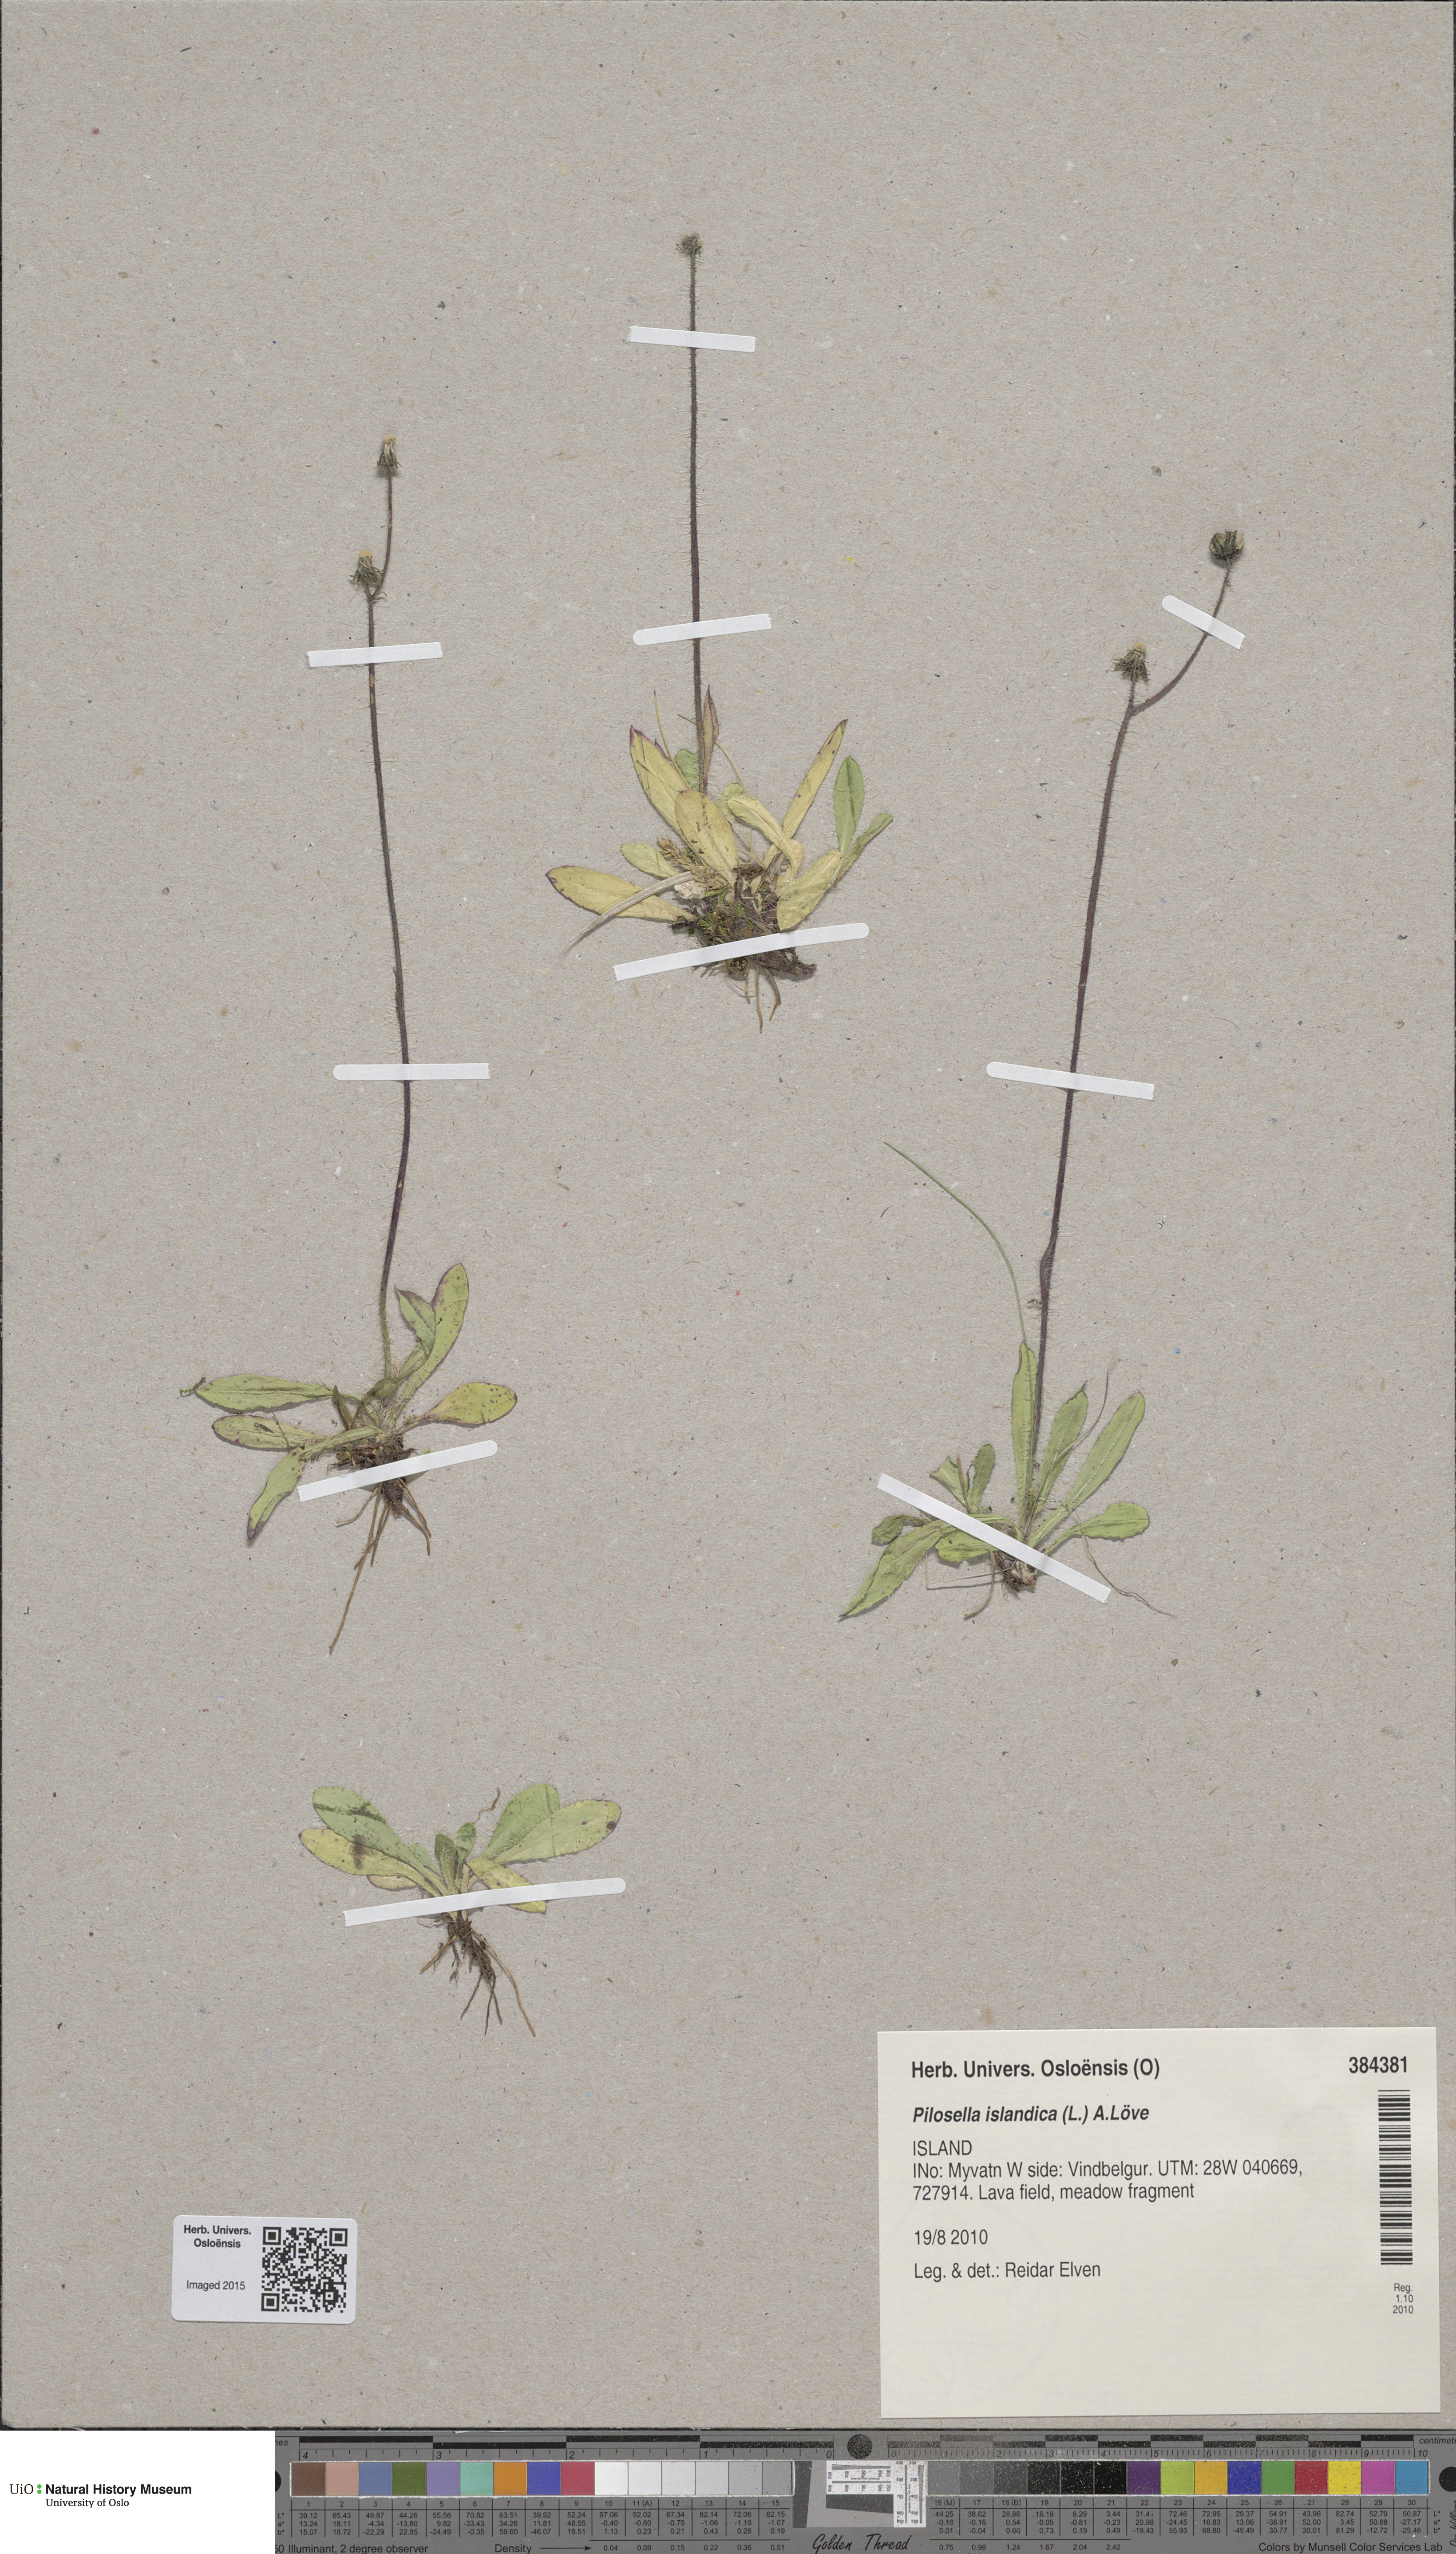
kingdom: Plantae
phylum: Tracheophyta
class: Magnoliopsida
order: Asterales
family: Asteraceae
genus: Pilosella
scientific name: Pilosella floribunda
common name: Glaucous hawkweed
